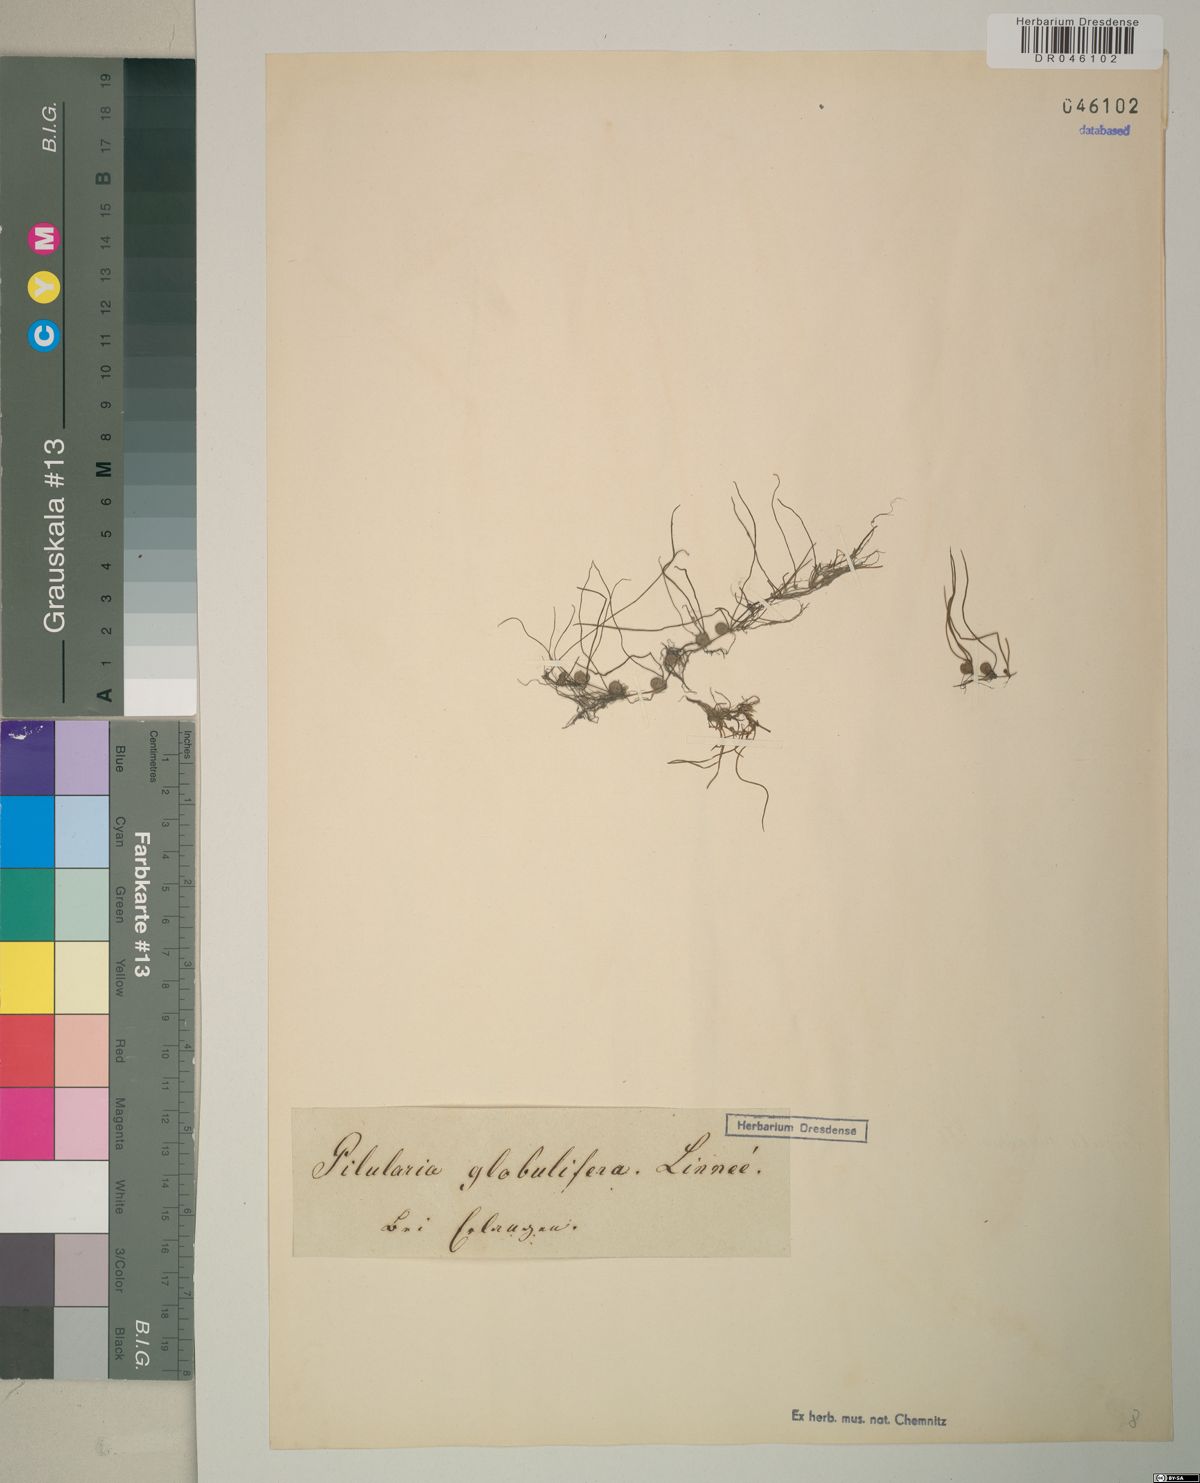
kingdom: Plantae
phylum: Tracheophyta
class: Polypodiopsida
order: Salviniales
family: Marsileaceae
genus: Pilularia
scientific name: Pilularia globulifera
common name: Pillwort
